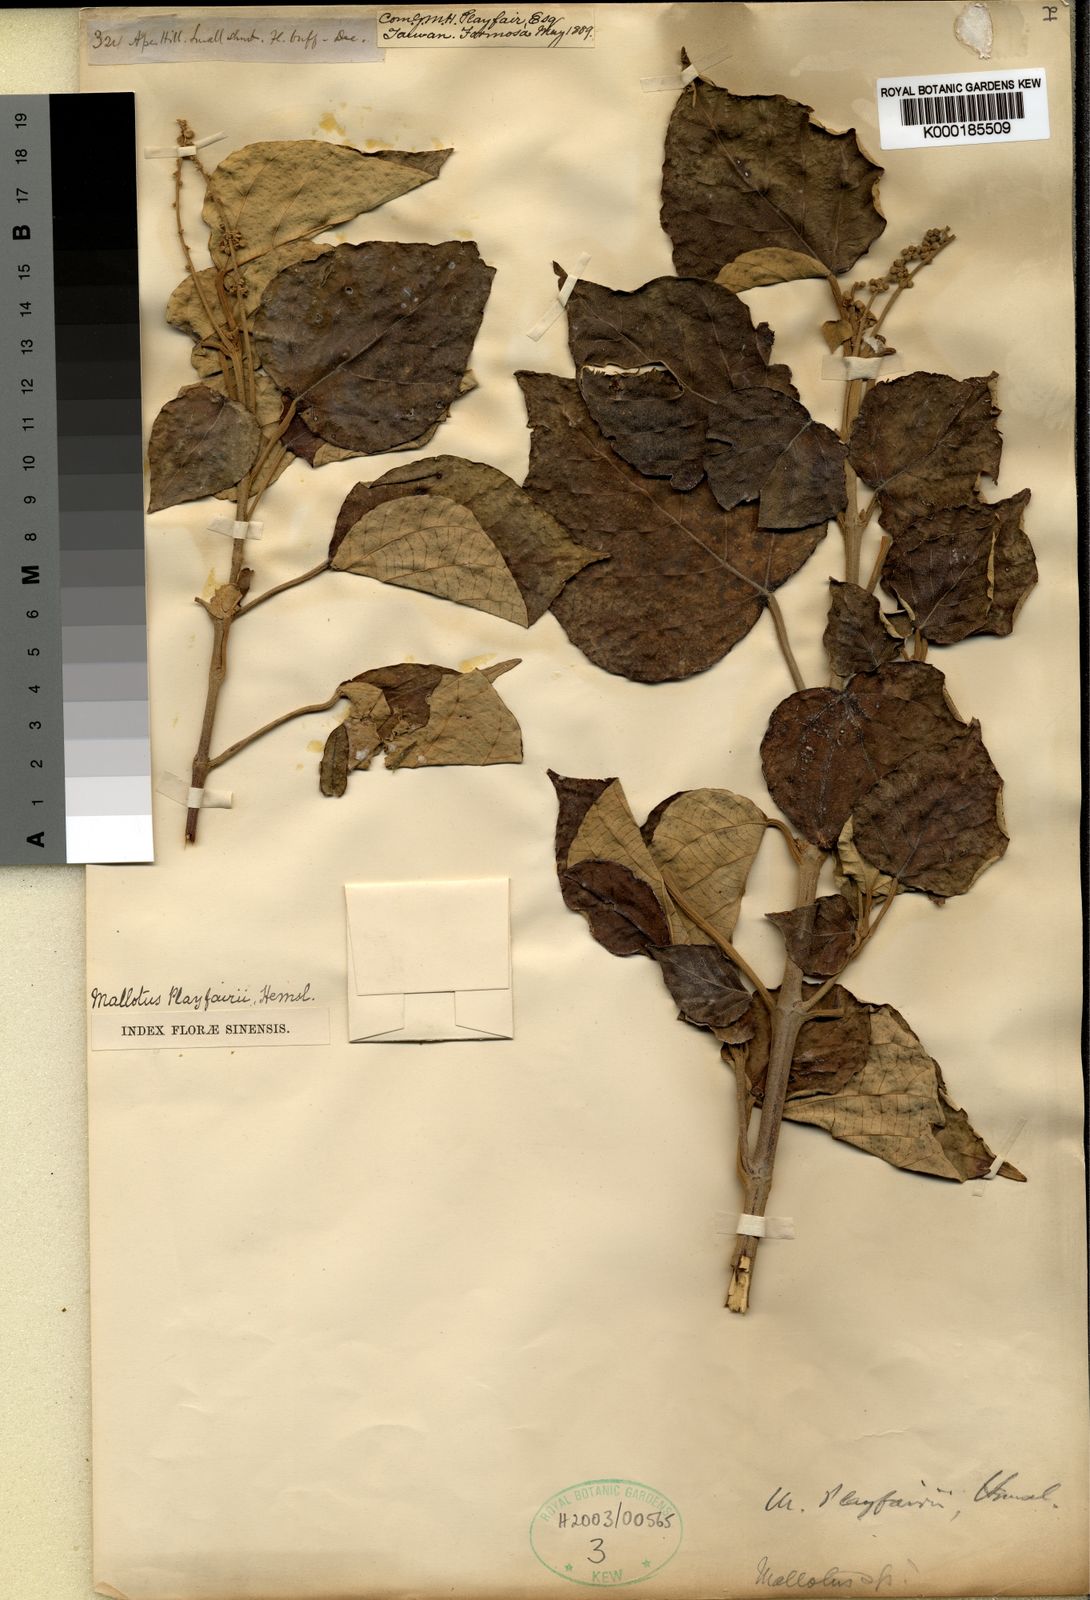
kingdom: Plantae
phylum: Tracheophyta
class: Magnoliopsida
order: Malpighiales
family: Euphorbiaceae
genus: Mallotus
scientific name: Mallotus tiliifolius
